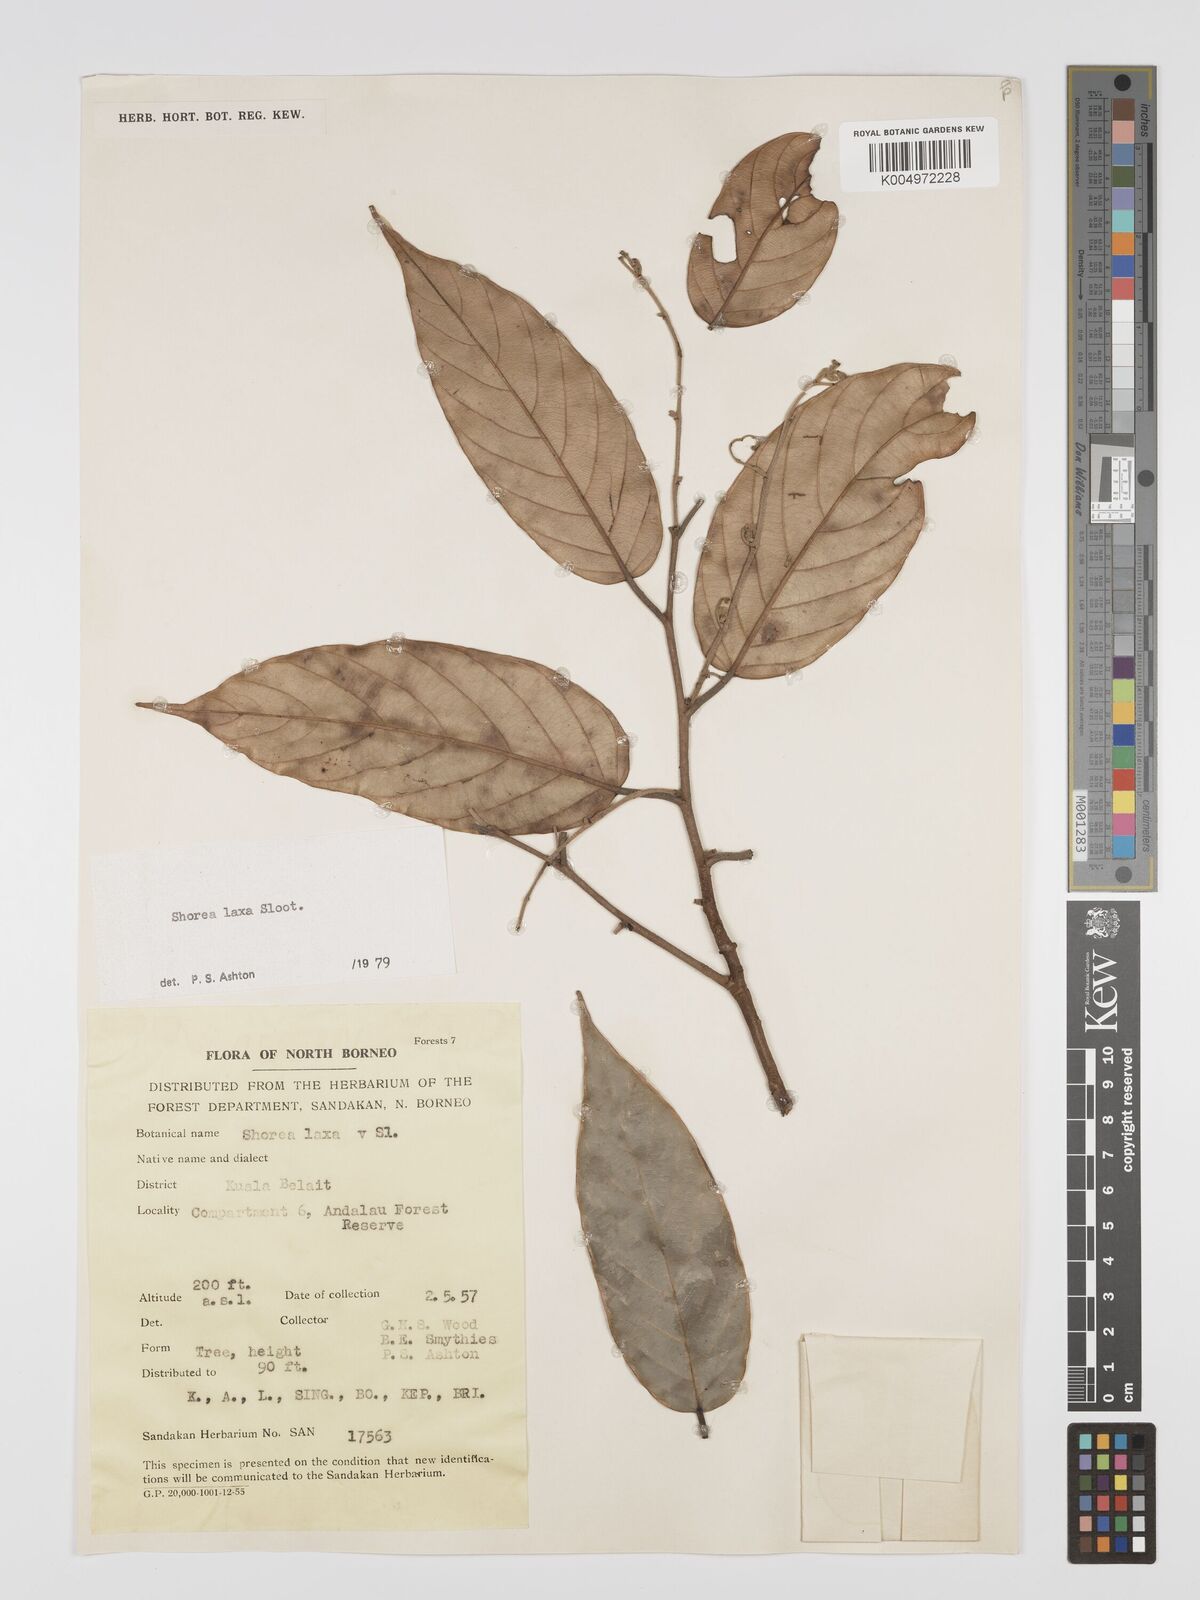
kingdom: Plantae
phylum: Tracheophyta
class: Magnoliopsida
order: Malvales
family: Dipterocarpaceae
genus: Shorea
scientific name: Shorea laxa
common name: Yellow meranti
